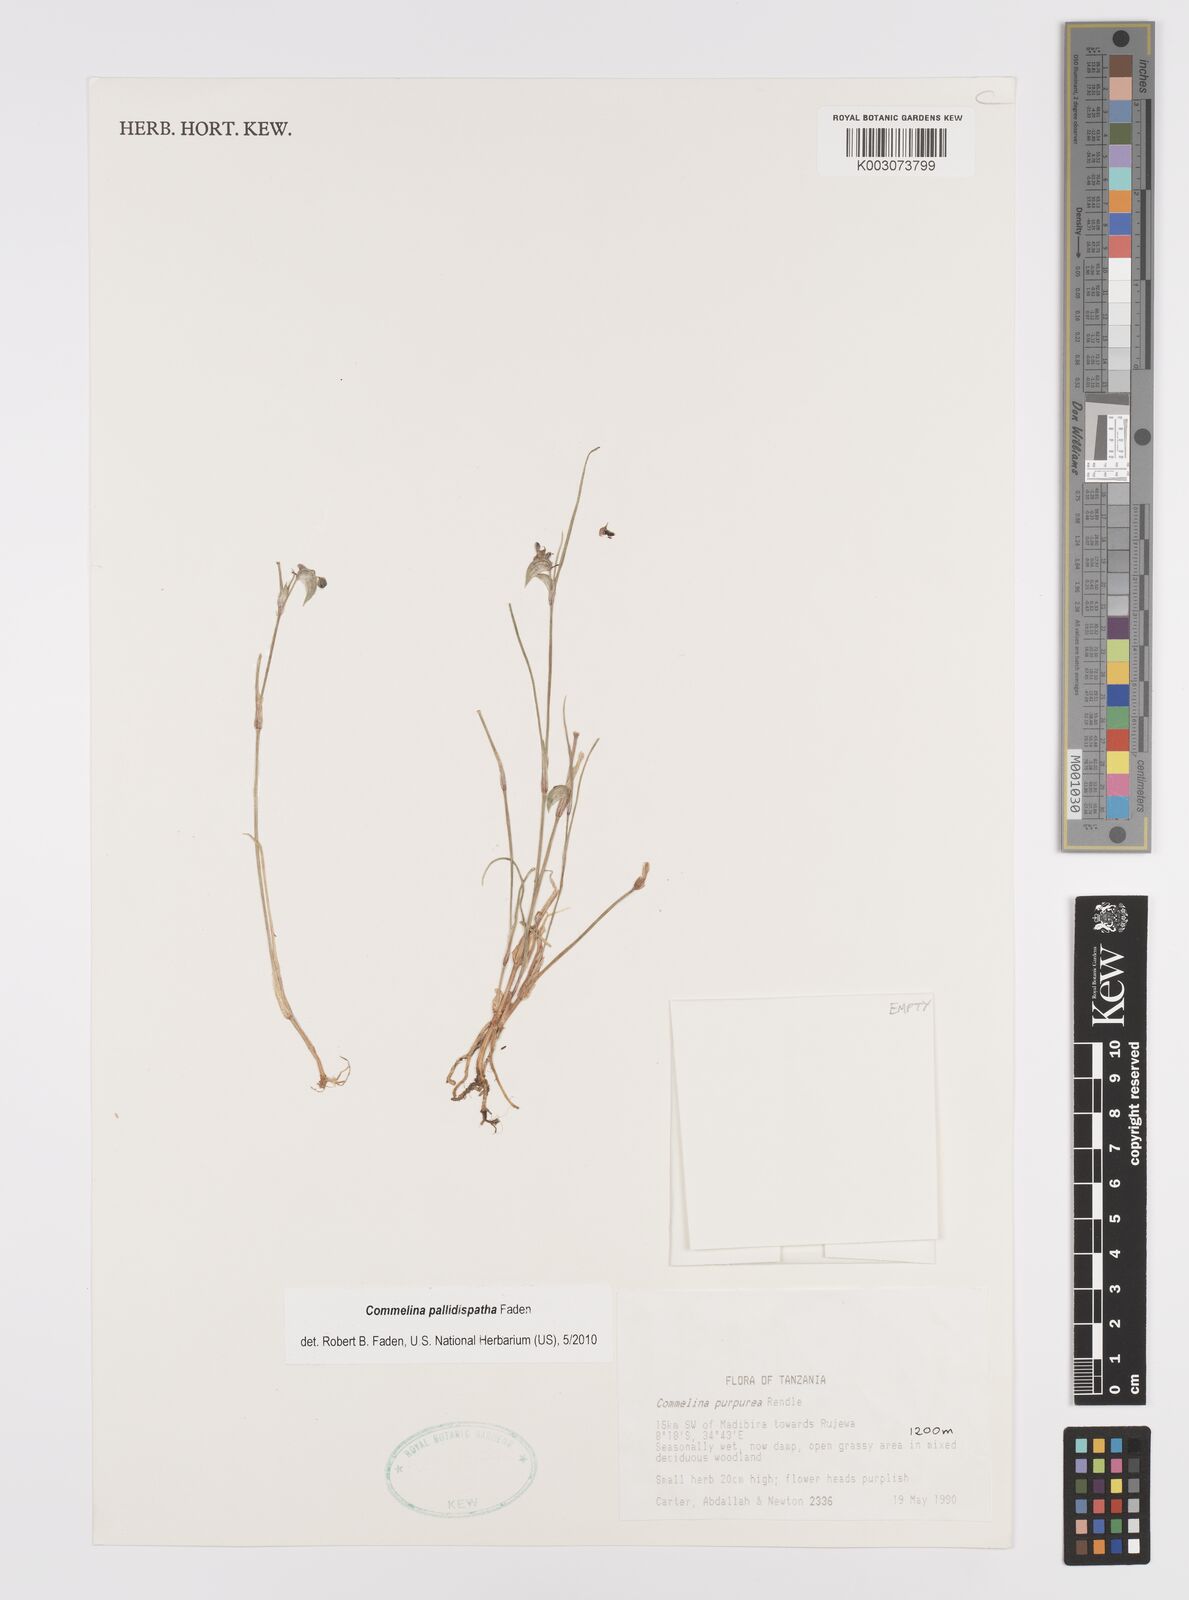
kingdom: Plantae
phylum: Tracheophyta
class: Liliopsida
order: Commelinales
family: Commelinaceae
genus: Commelina
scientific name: Commelina pallidispatha
